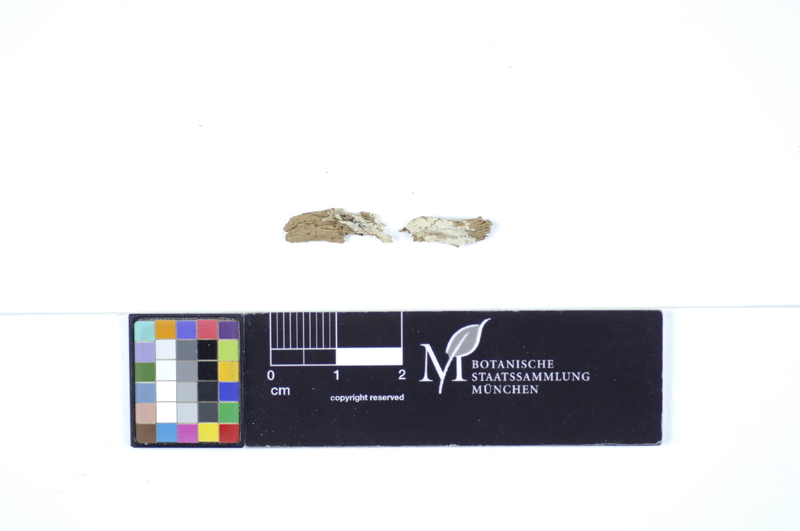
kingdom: Plantae
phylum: Tracheophyta
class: Pinopsida
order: Pinales
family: Pinaceae
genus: Picea
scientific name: Picea
